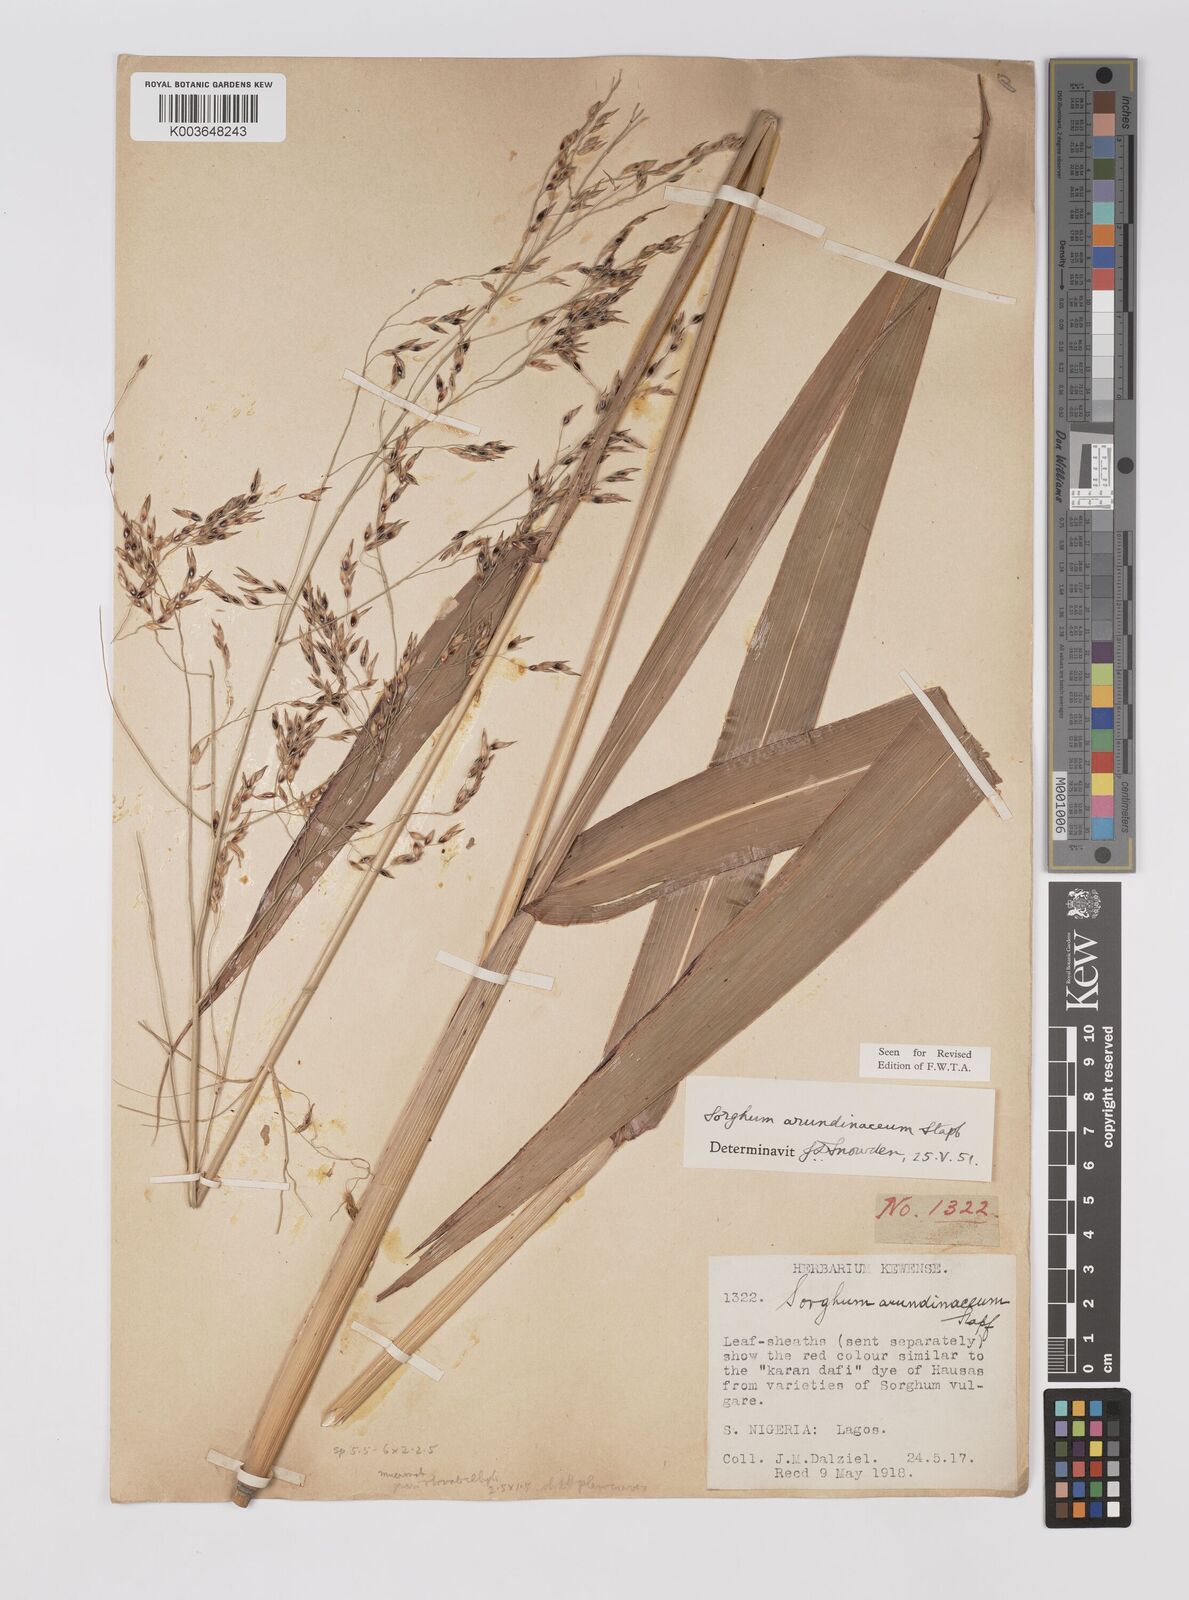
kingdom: Plantae
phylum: Tracheophyta
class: Liliopsida
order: Poales
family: Poaceae
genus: Sorghum
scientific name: Sorghum arundinaceum
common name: Sorghum
